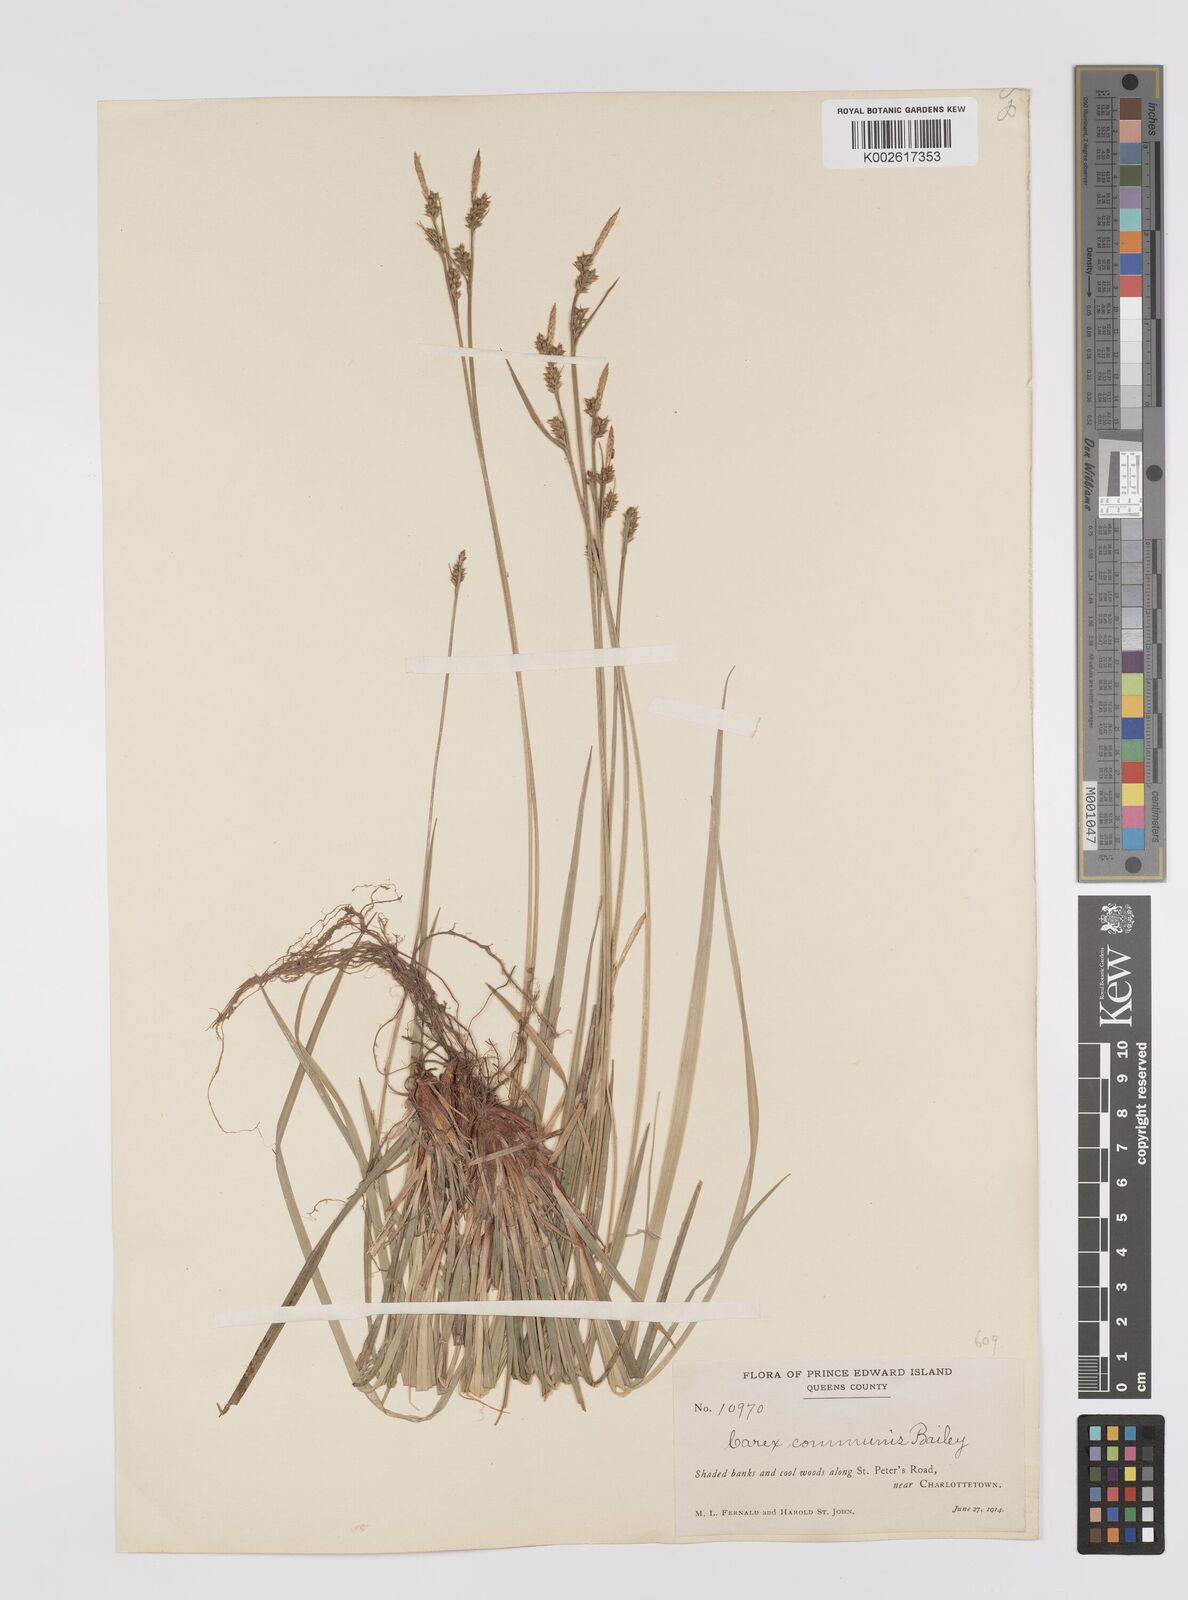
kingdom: Plantae
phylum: Tracheophyta
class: Liliopsida
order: Poales
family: Cyperaceae
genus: Carex
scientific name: Carex communis
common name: Colonial oak sedge
